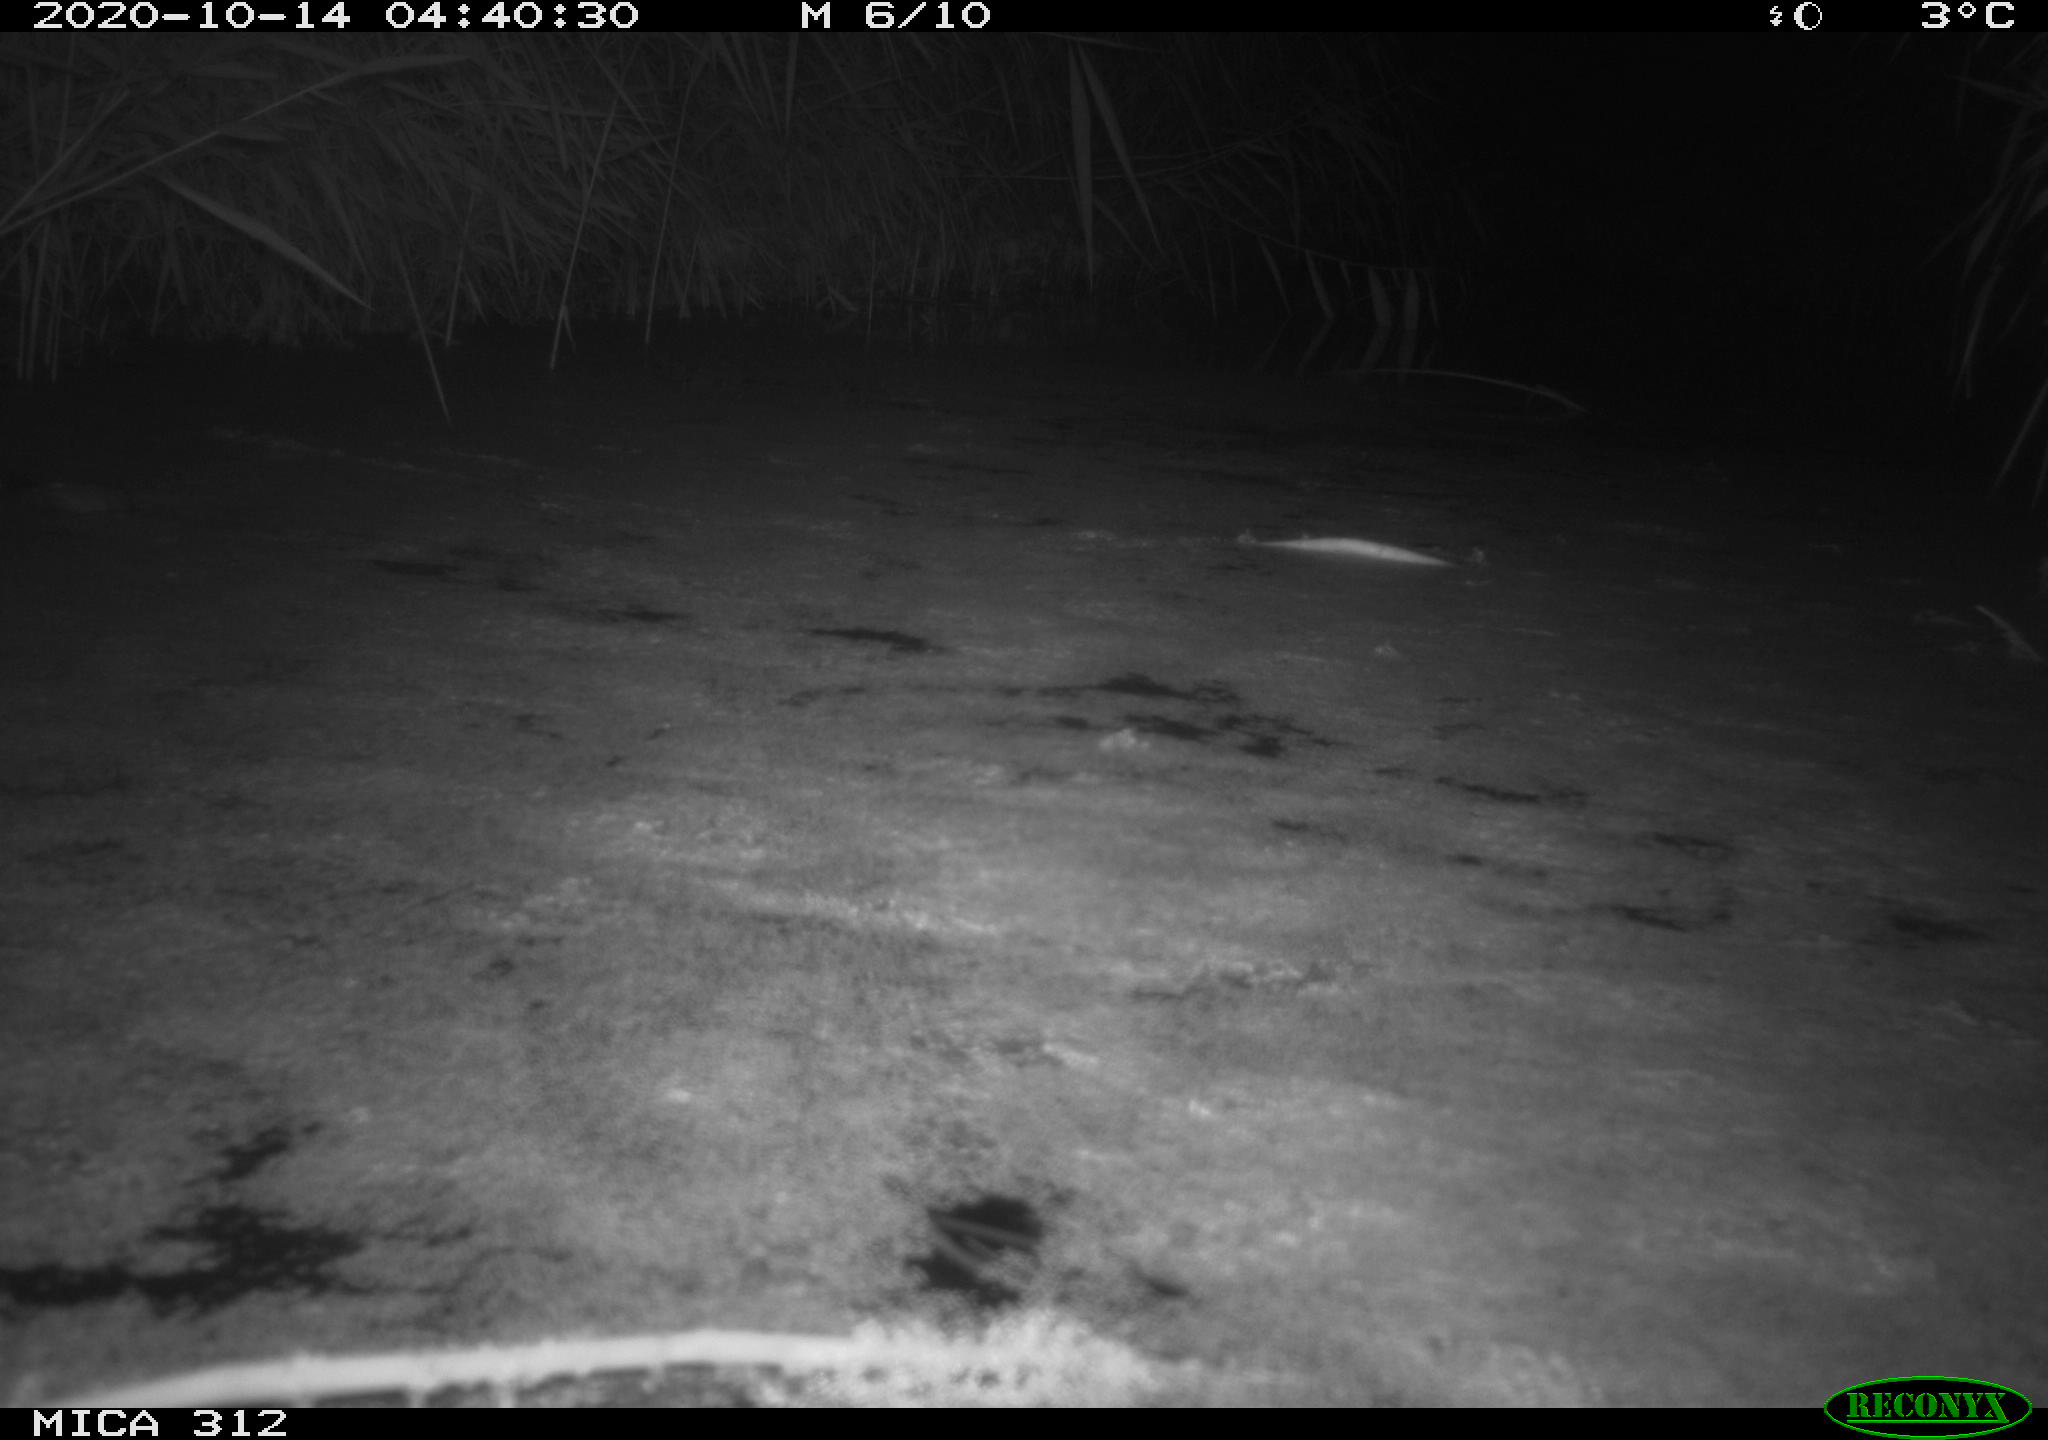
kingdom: Animalia
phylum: Chordata
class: Mammalia
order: Rodentia
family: Muridae
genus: Rattus
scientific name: Rattus norvegicus
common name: Brown rat
